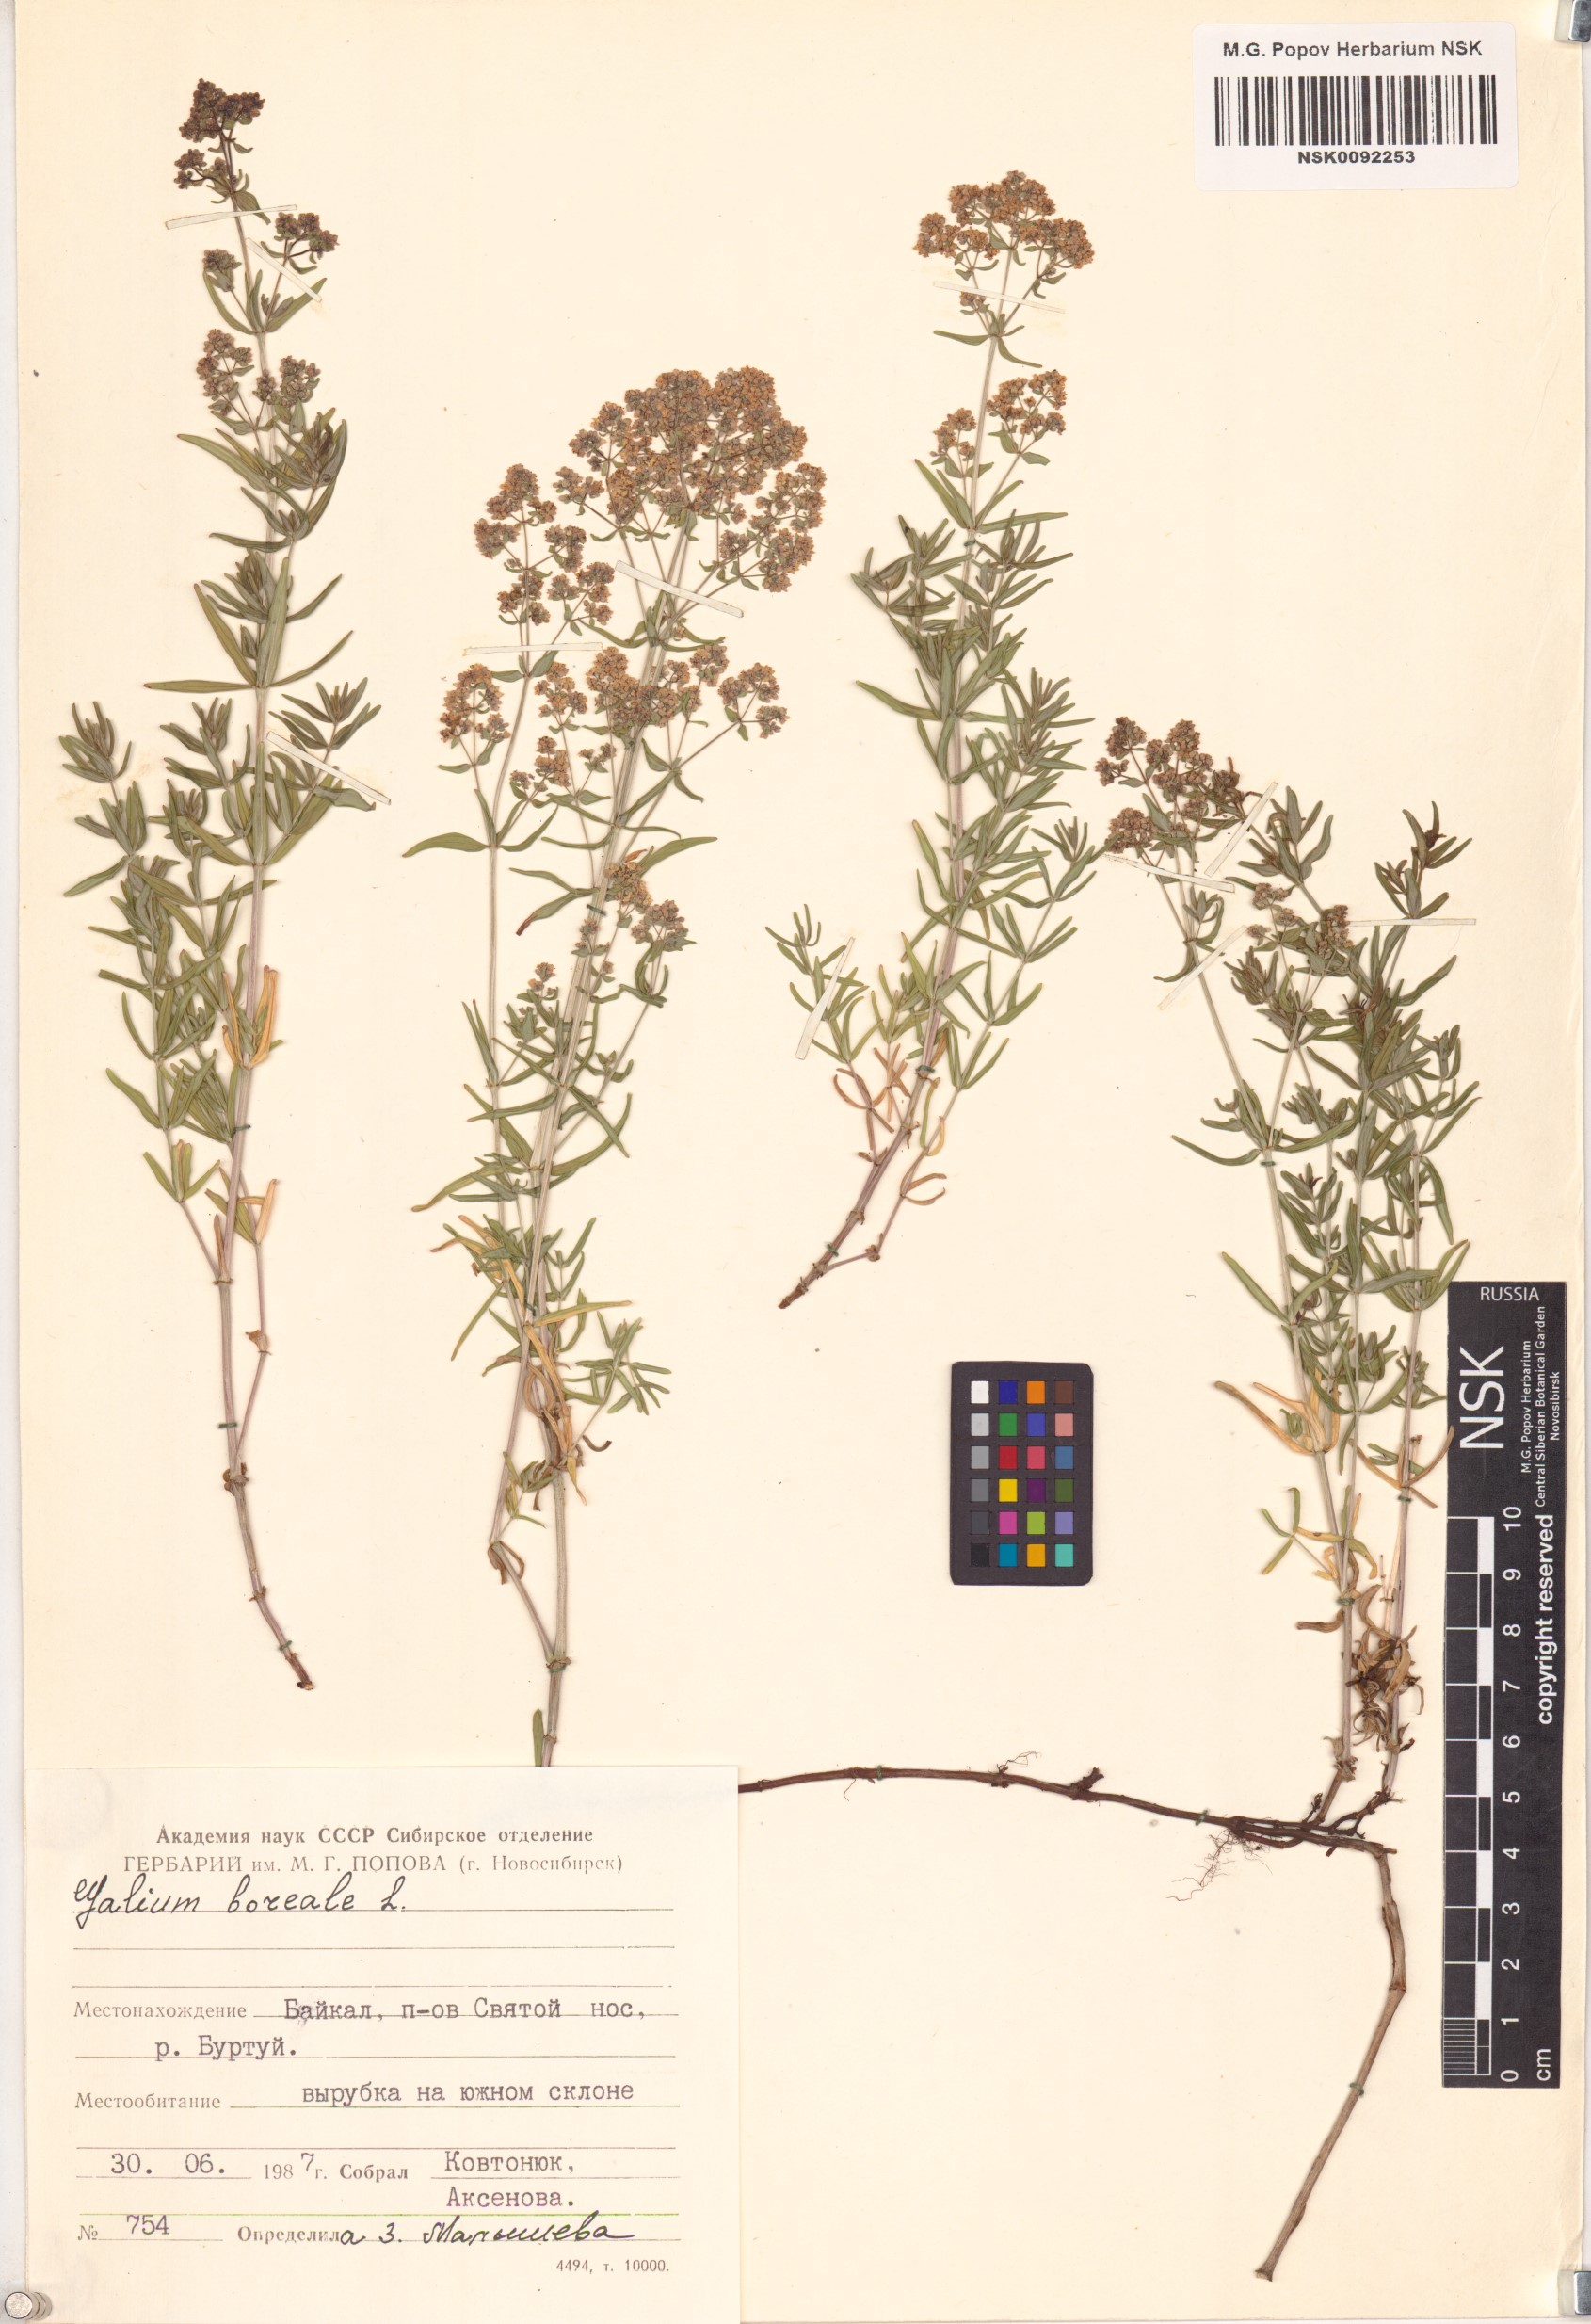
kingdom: Plantae
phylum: Tracheophyta
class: Magnoliopsida
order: Gentianales
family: Rubiaceae
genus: Galium
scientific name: Galium boreale
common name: Northern bedstraw
